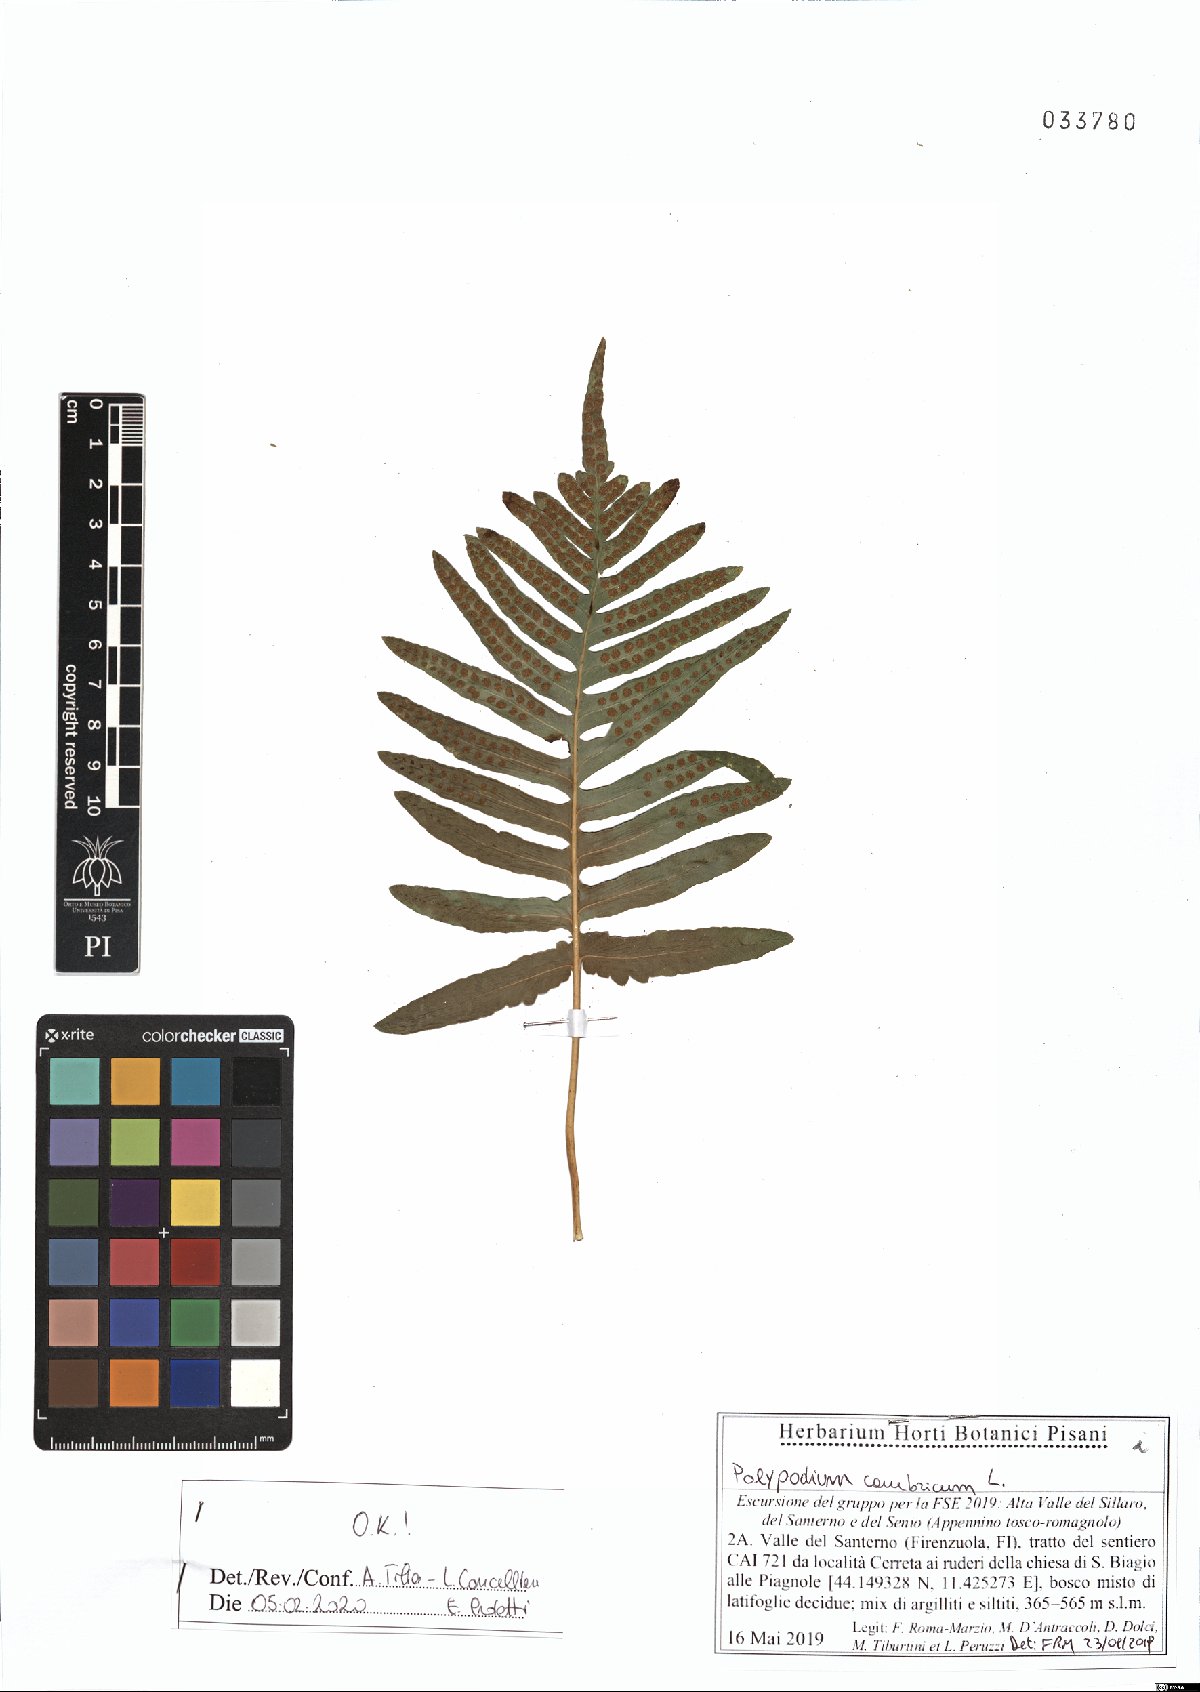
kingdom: Plantae
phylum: Tracheophyta
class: Polypodiopsida
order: Polypodiales
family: Polypodiaceae
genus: Polypodium
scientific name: Polypodium cambricum
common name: Southern polypody
